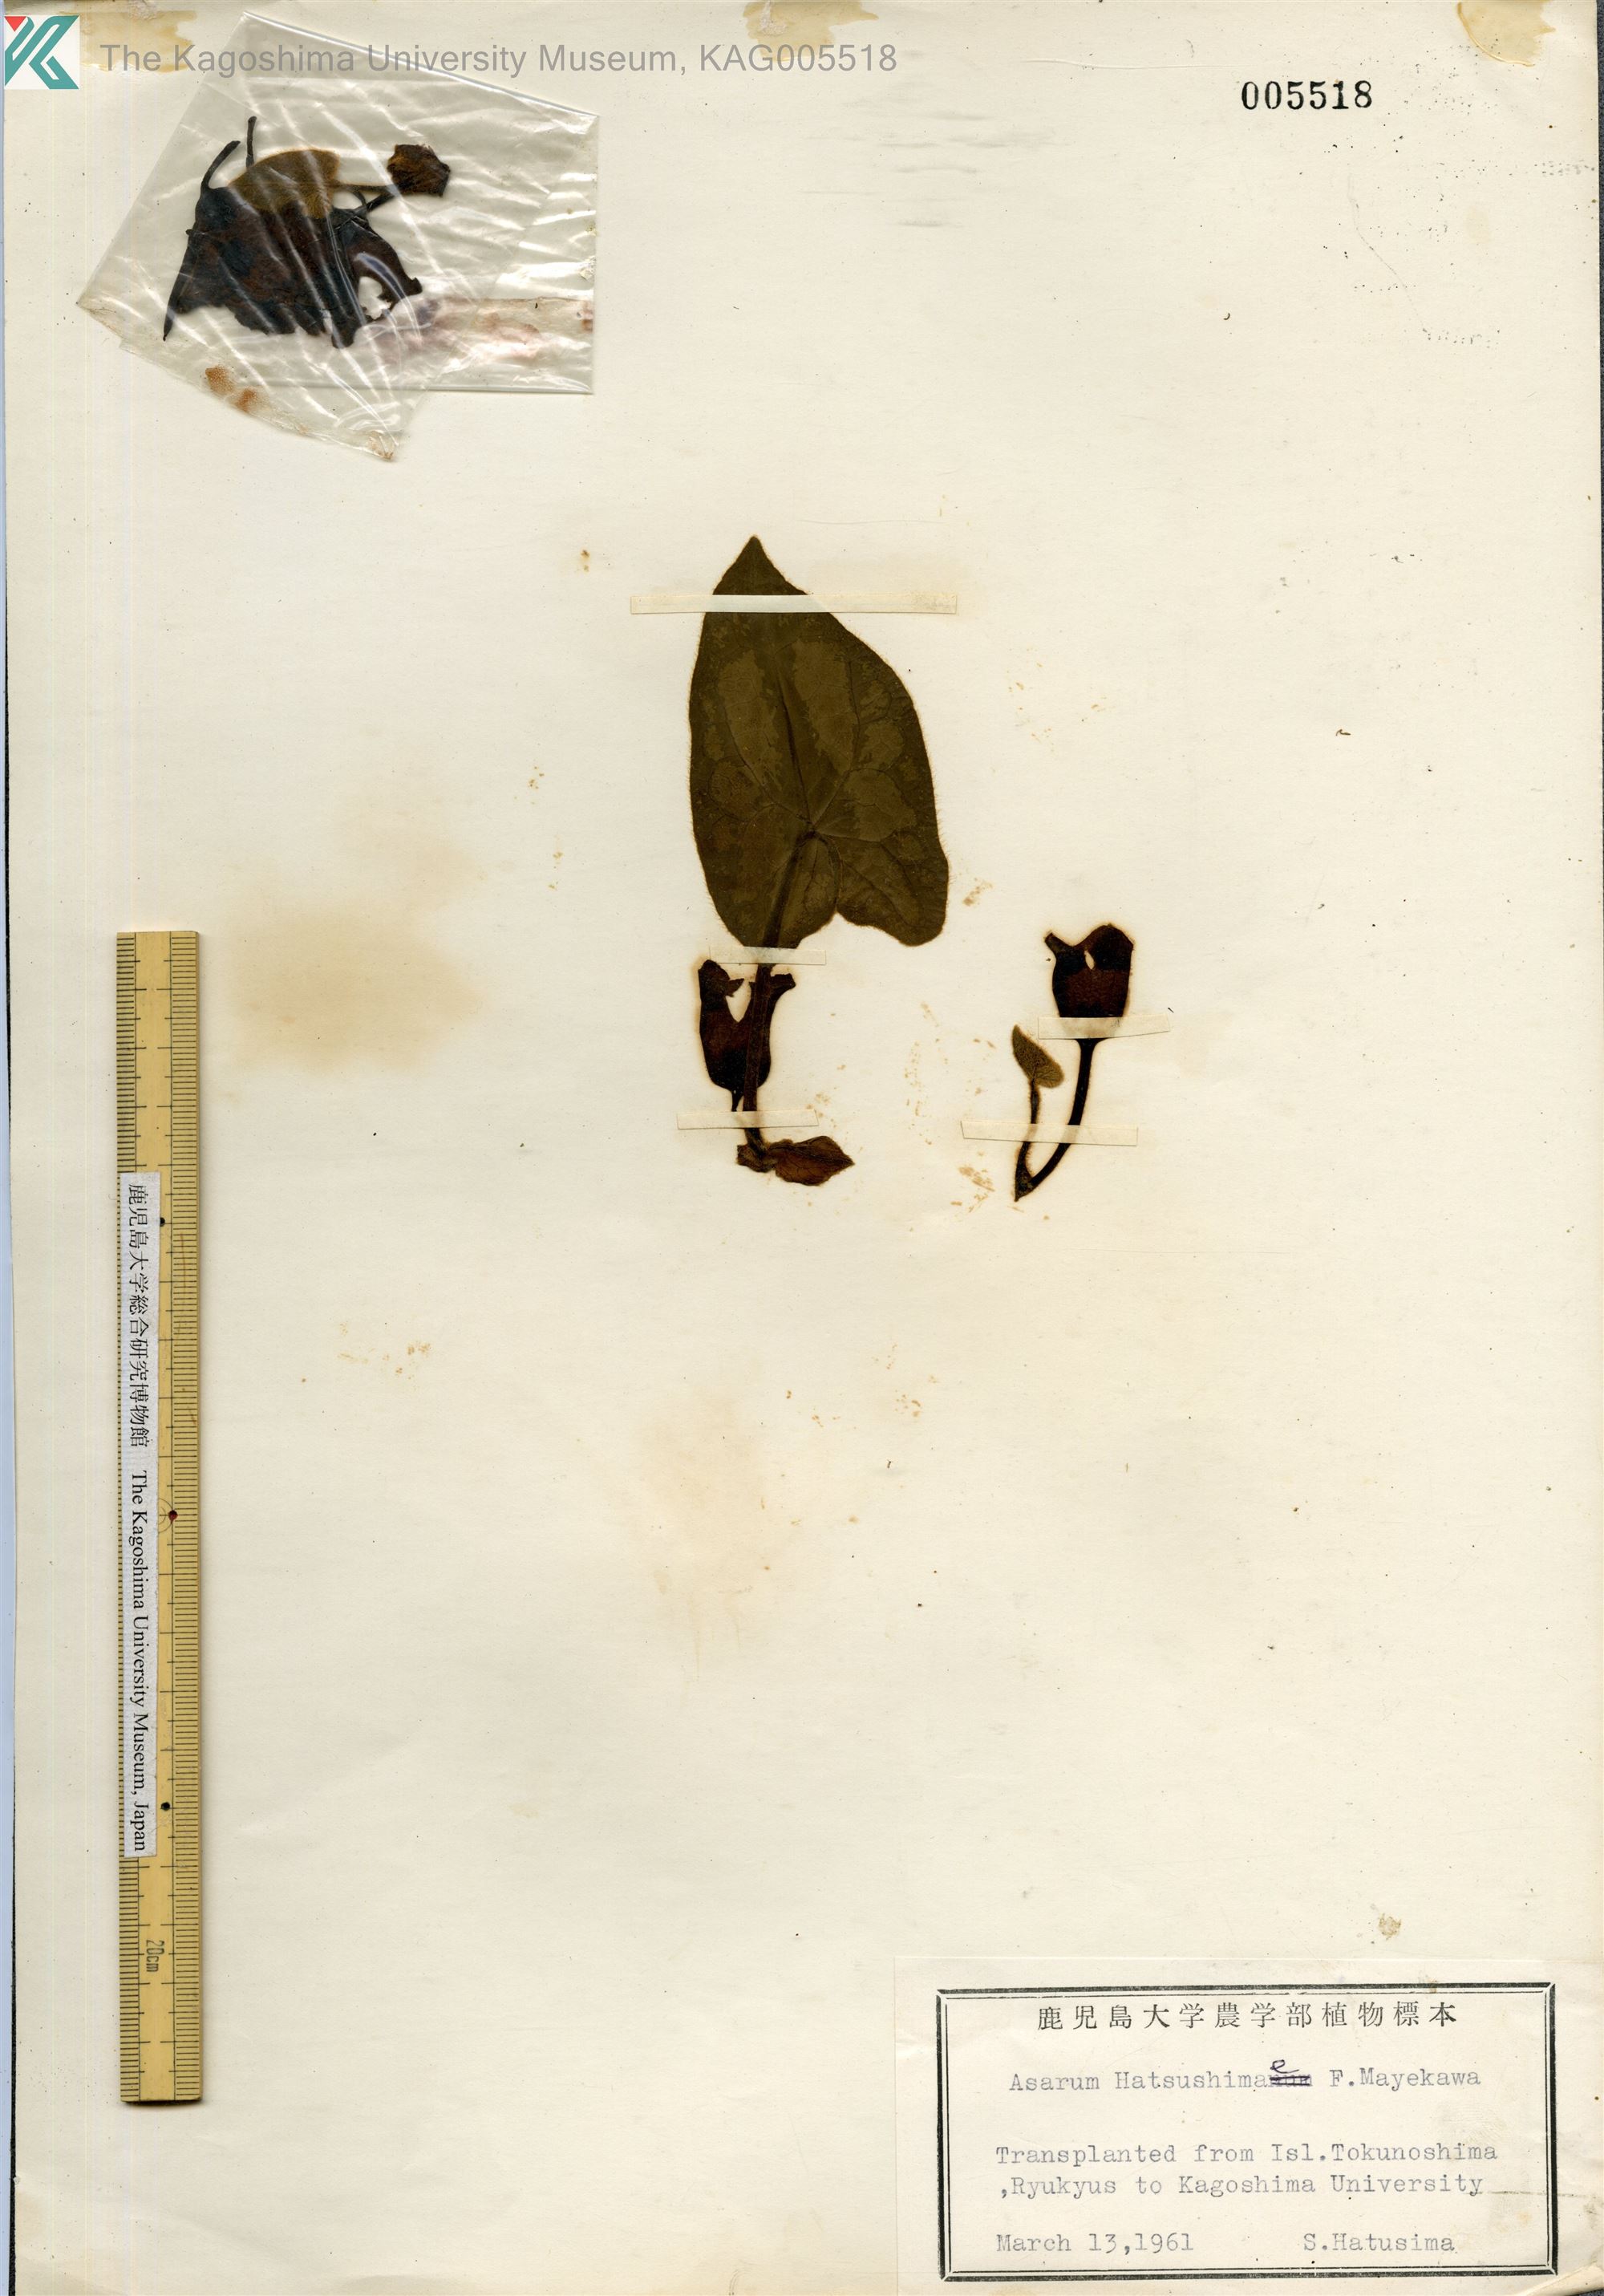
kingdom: Plantae
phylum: Tracheophyta
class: Magnoliopsida
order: Piperales
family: Aristolochiaceae
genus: Asarum
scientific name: Asarum hatushimae
